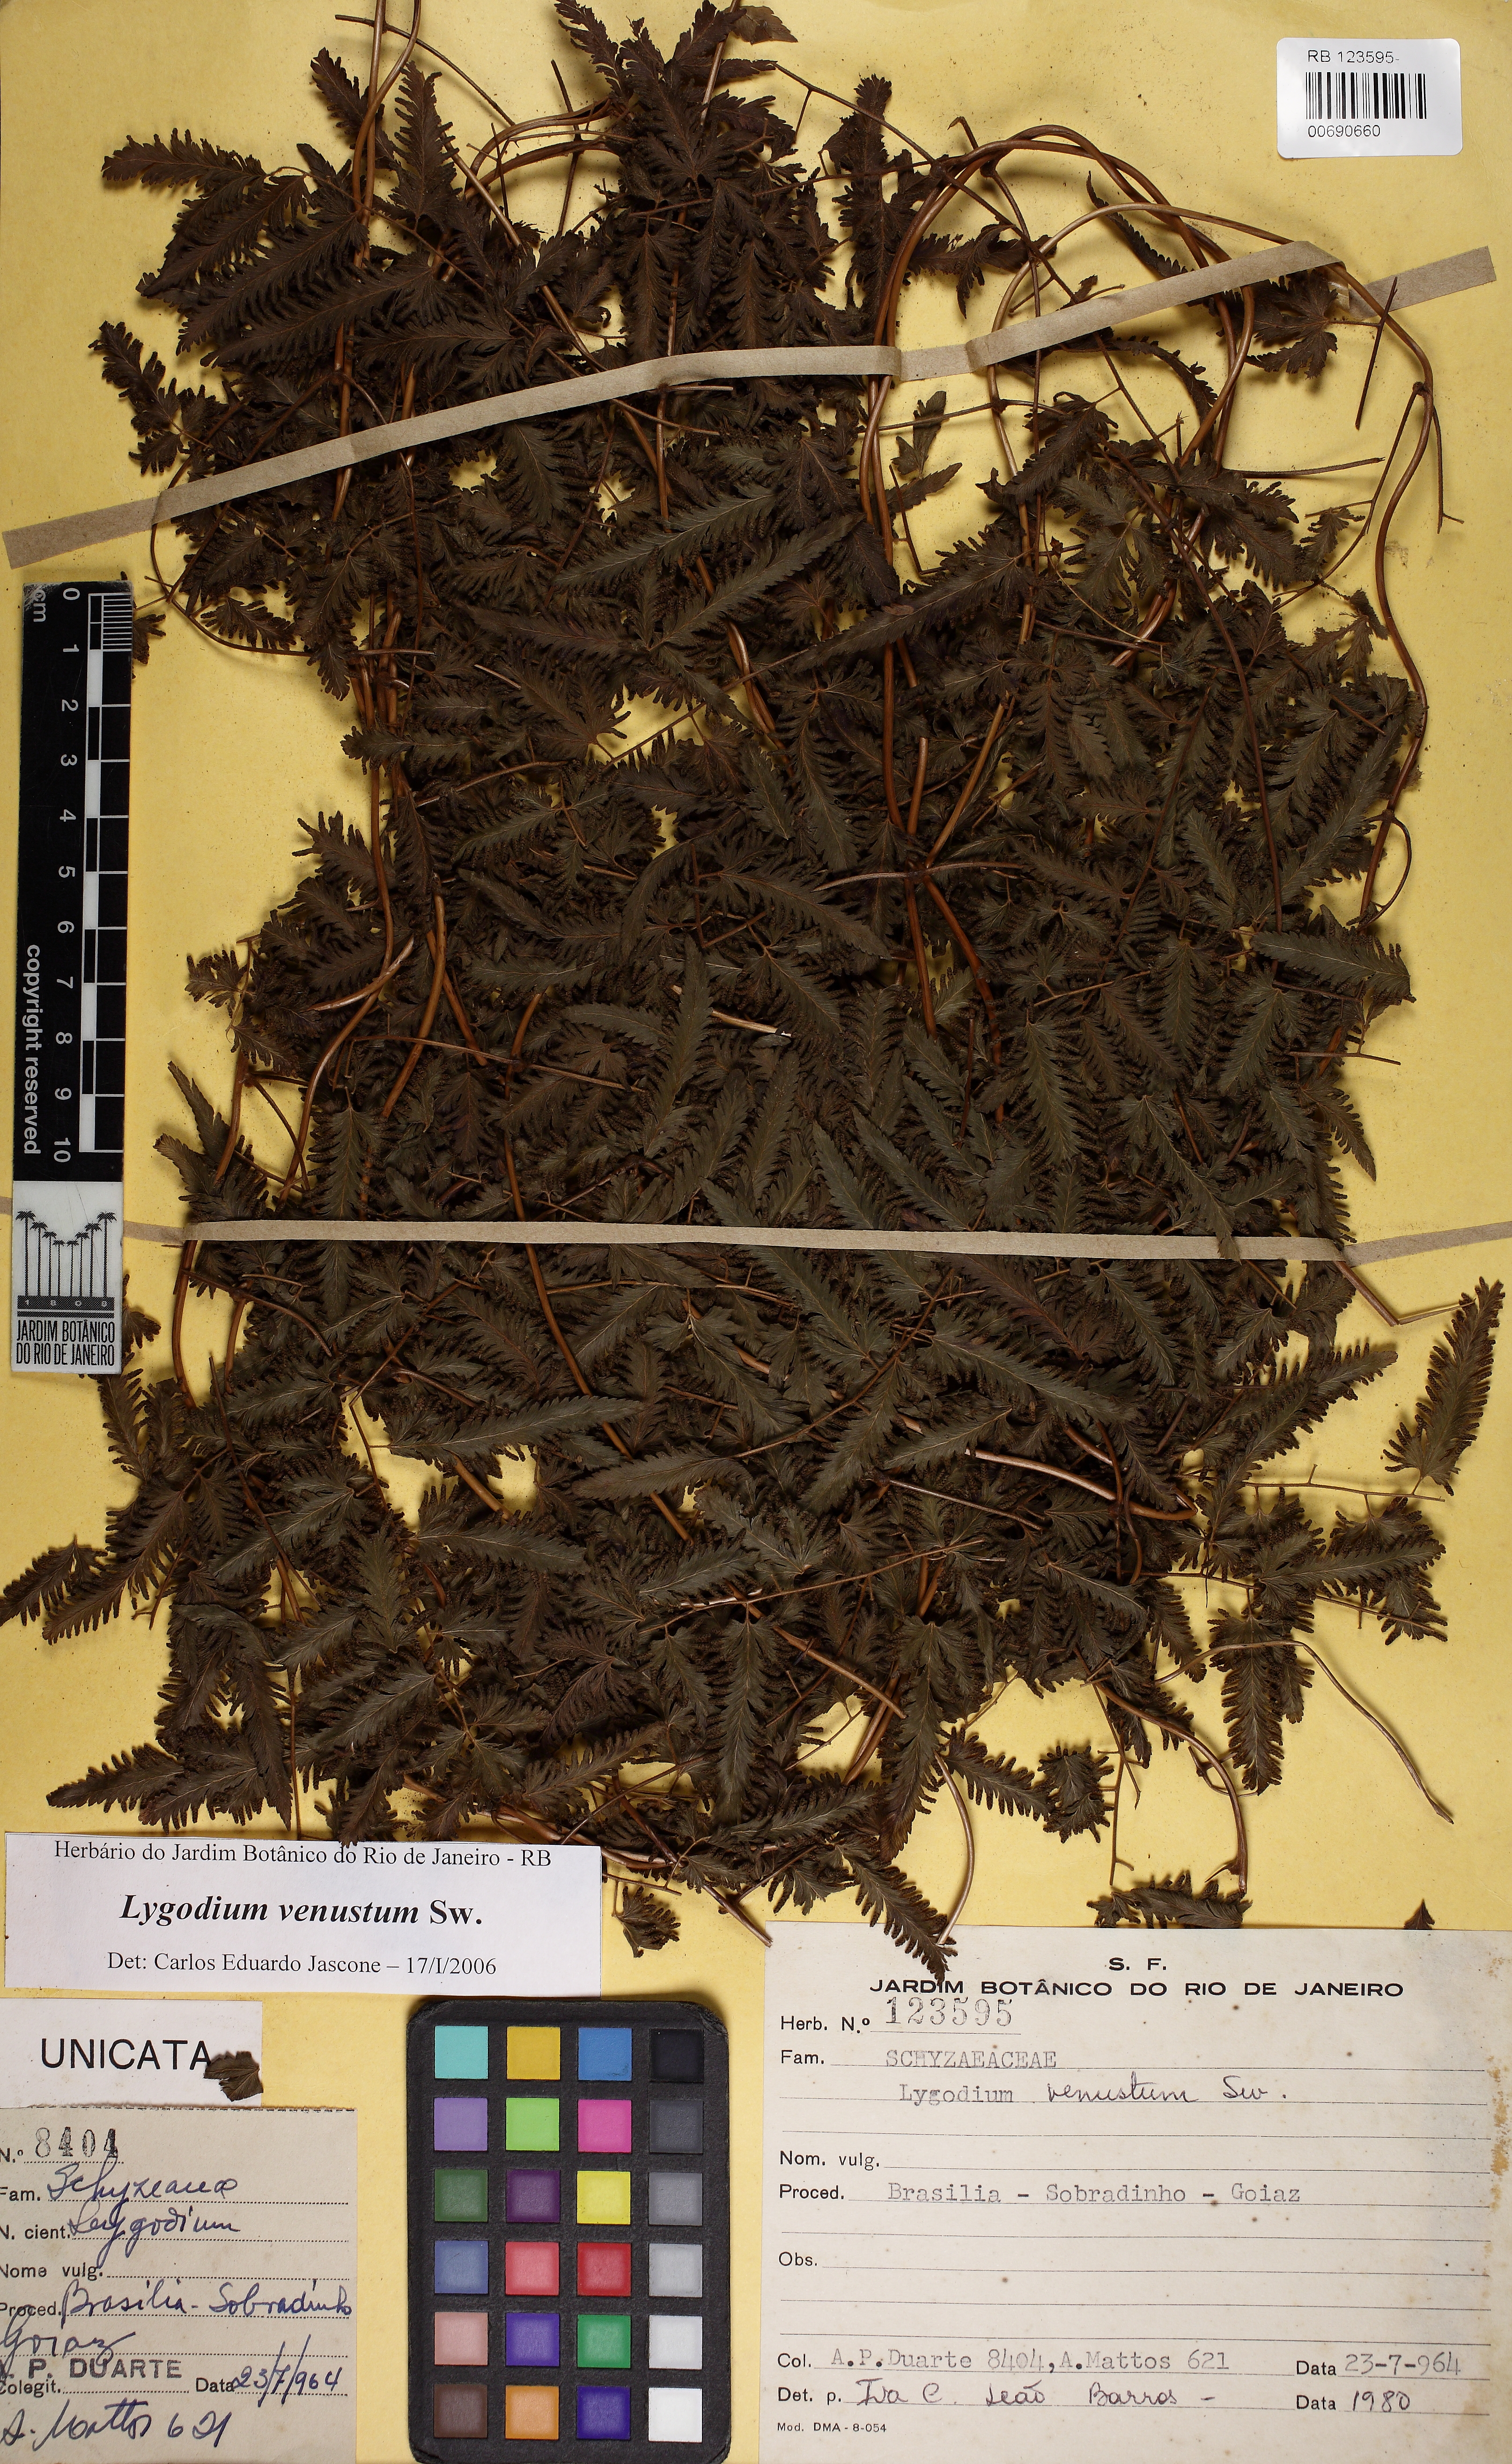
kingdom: Plantae
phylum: Tracheophyta
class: Polypodiopsida
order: Schizaeales
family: Lygodiaceae
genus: Lygodium
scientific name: Lygodium venustum
